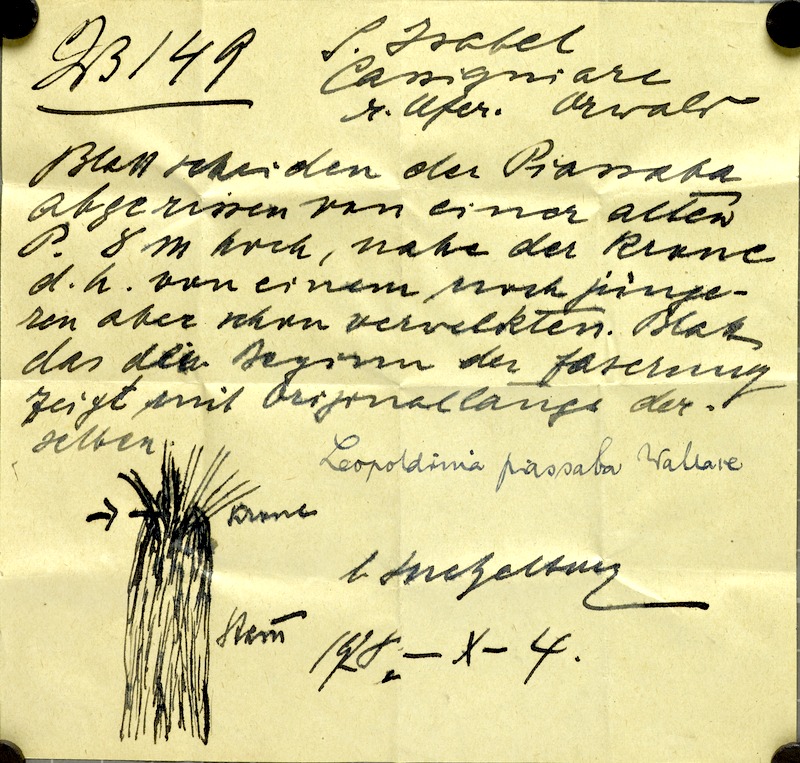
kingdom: Plantae
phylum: Tracheophyta
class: Liliopsida
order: Arecales
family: Arecaceae
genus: Leopoldinia
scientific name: Leopoldinia piassaba
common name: Piassaba
